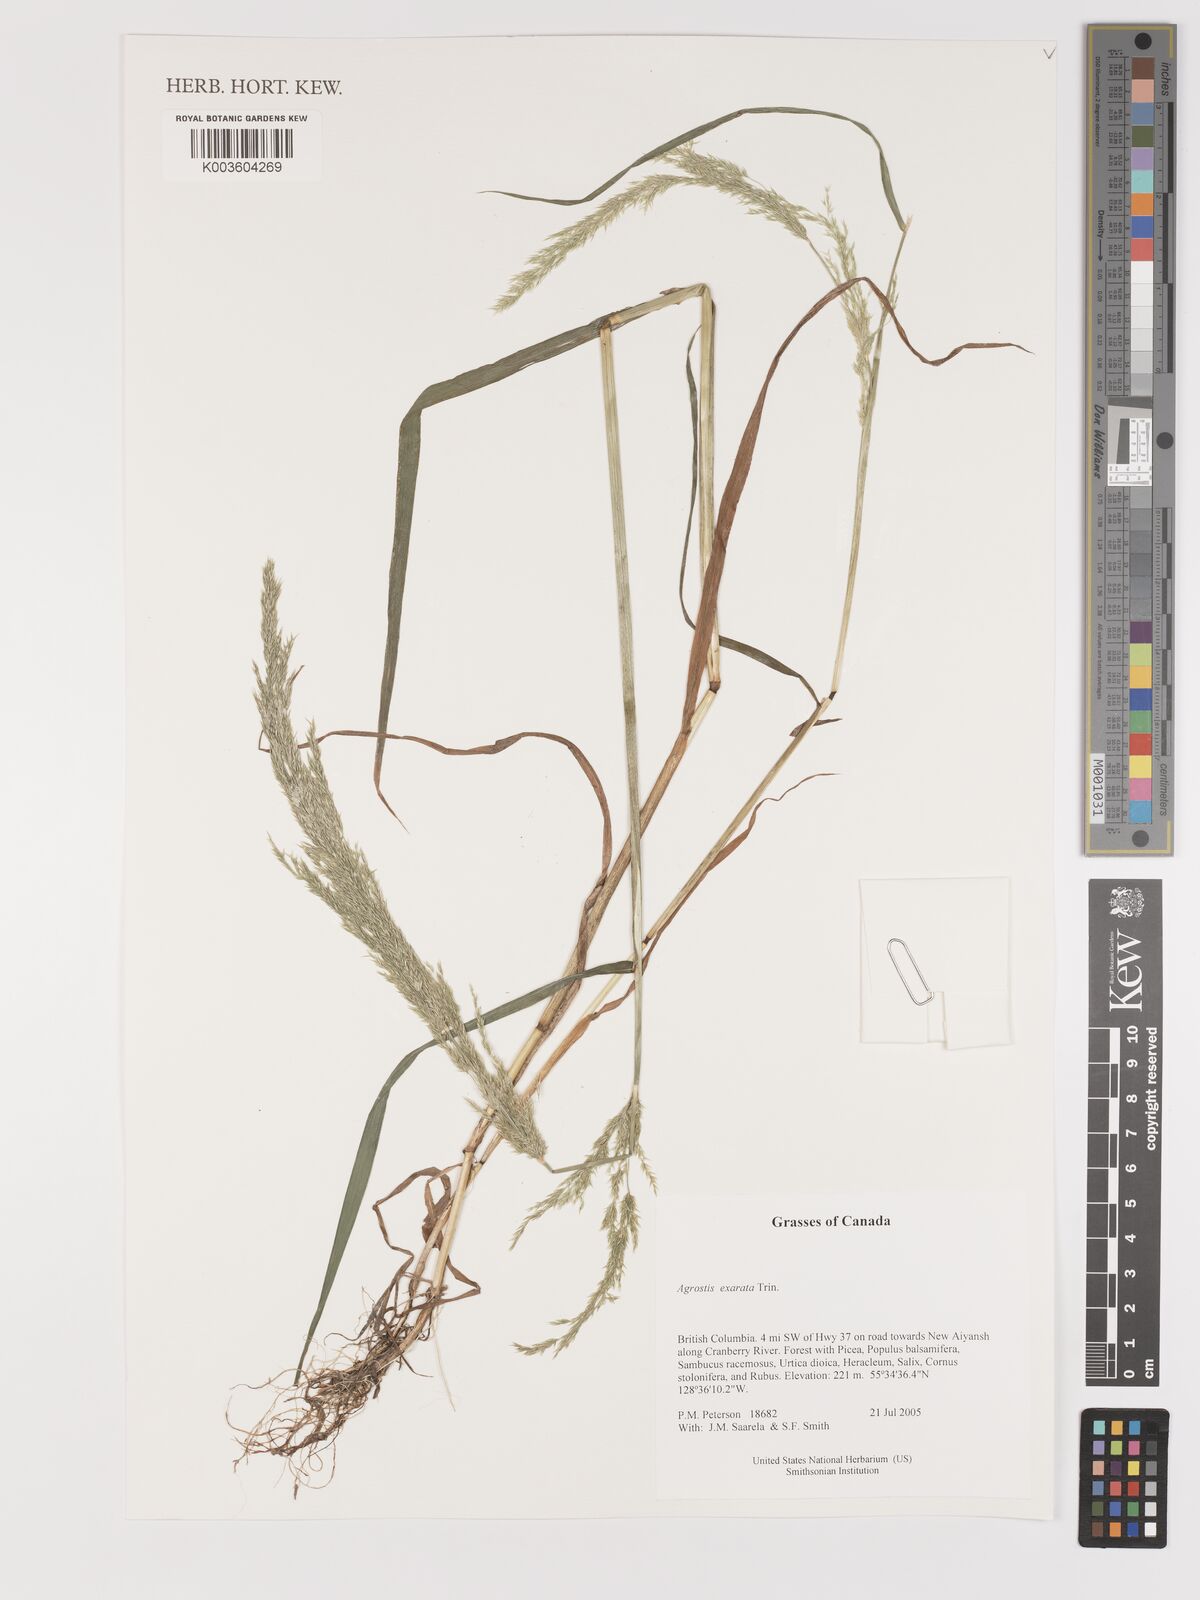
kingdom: Plantae
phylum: Tracheophyta
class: Liliopsida
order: Poales
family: Poaceae
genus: Agrostis
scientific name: Agrostis exarata
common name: Spike bent
